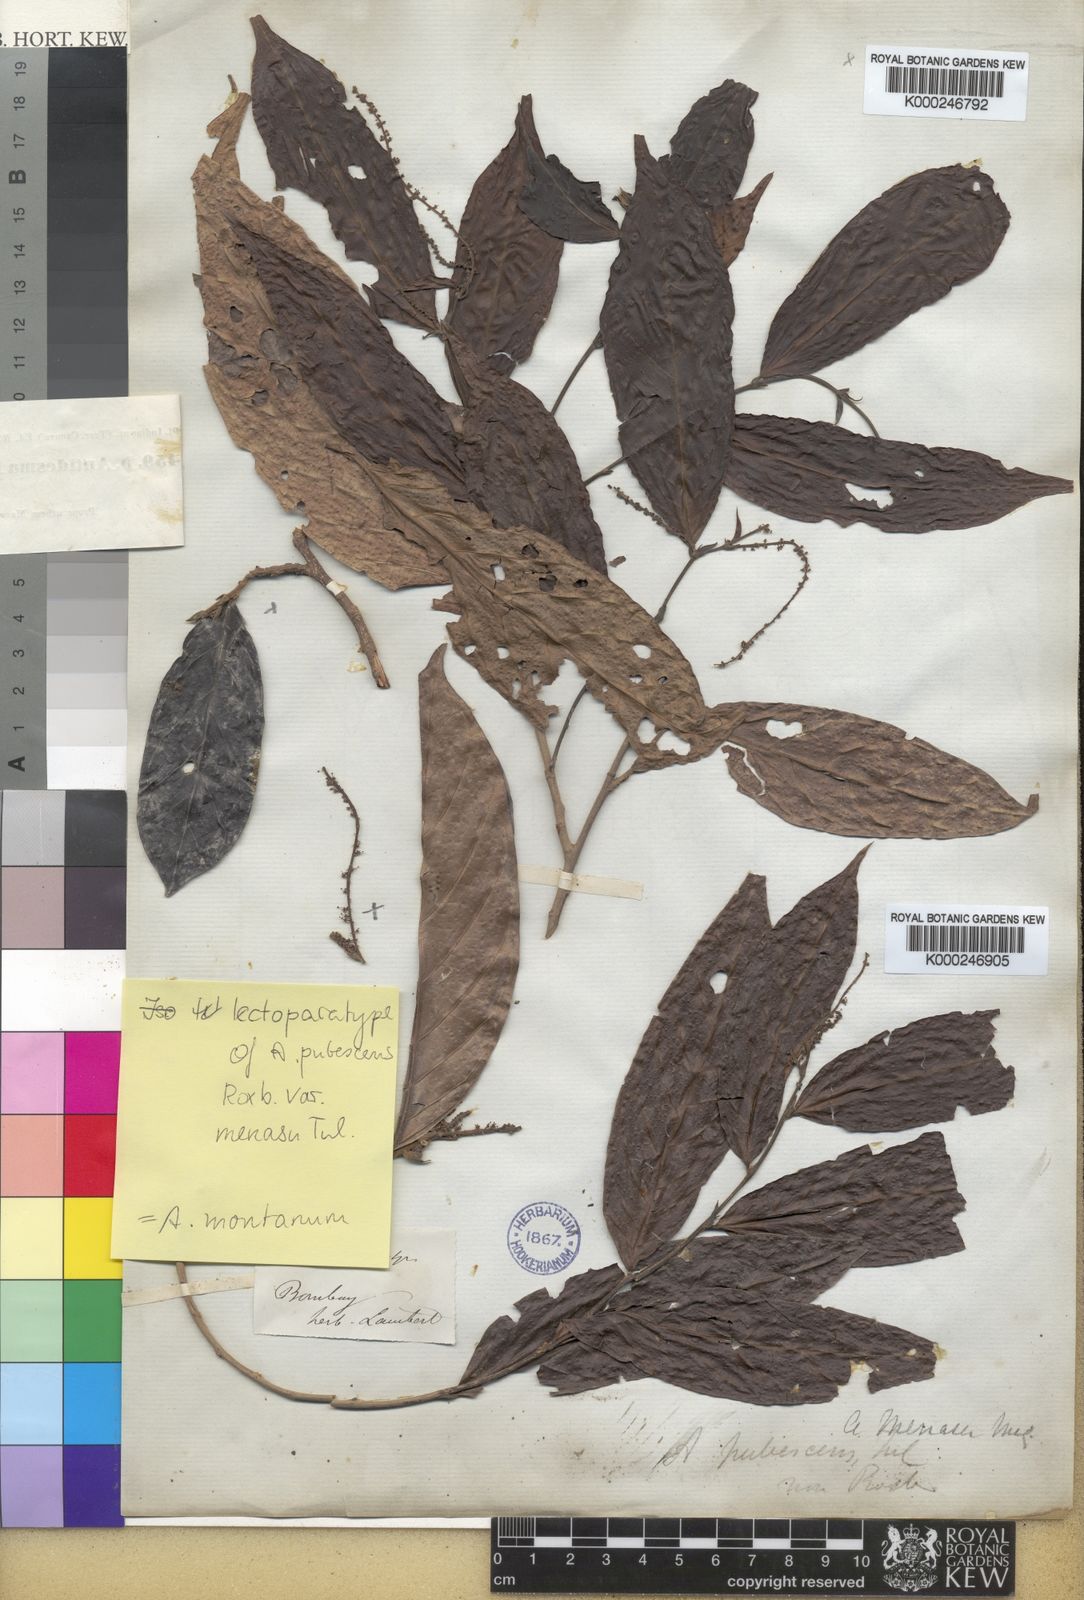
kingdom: Plantae
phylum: Tracheophyta
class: Magnoliopsida
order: Malpighiales
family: Phyllanthaceae
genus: Antidesma
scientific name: Antidesma montanum
